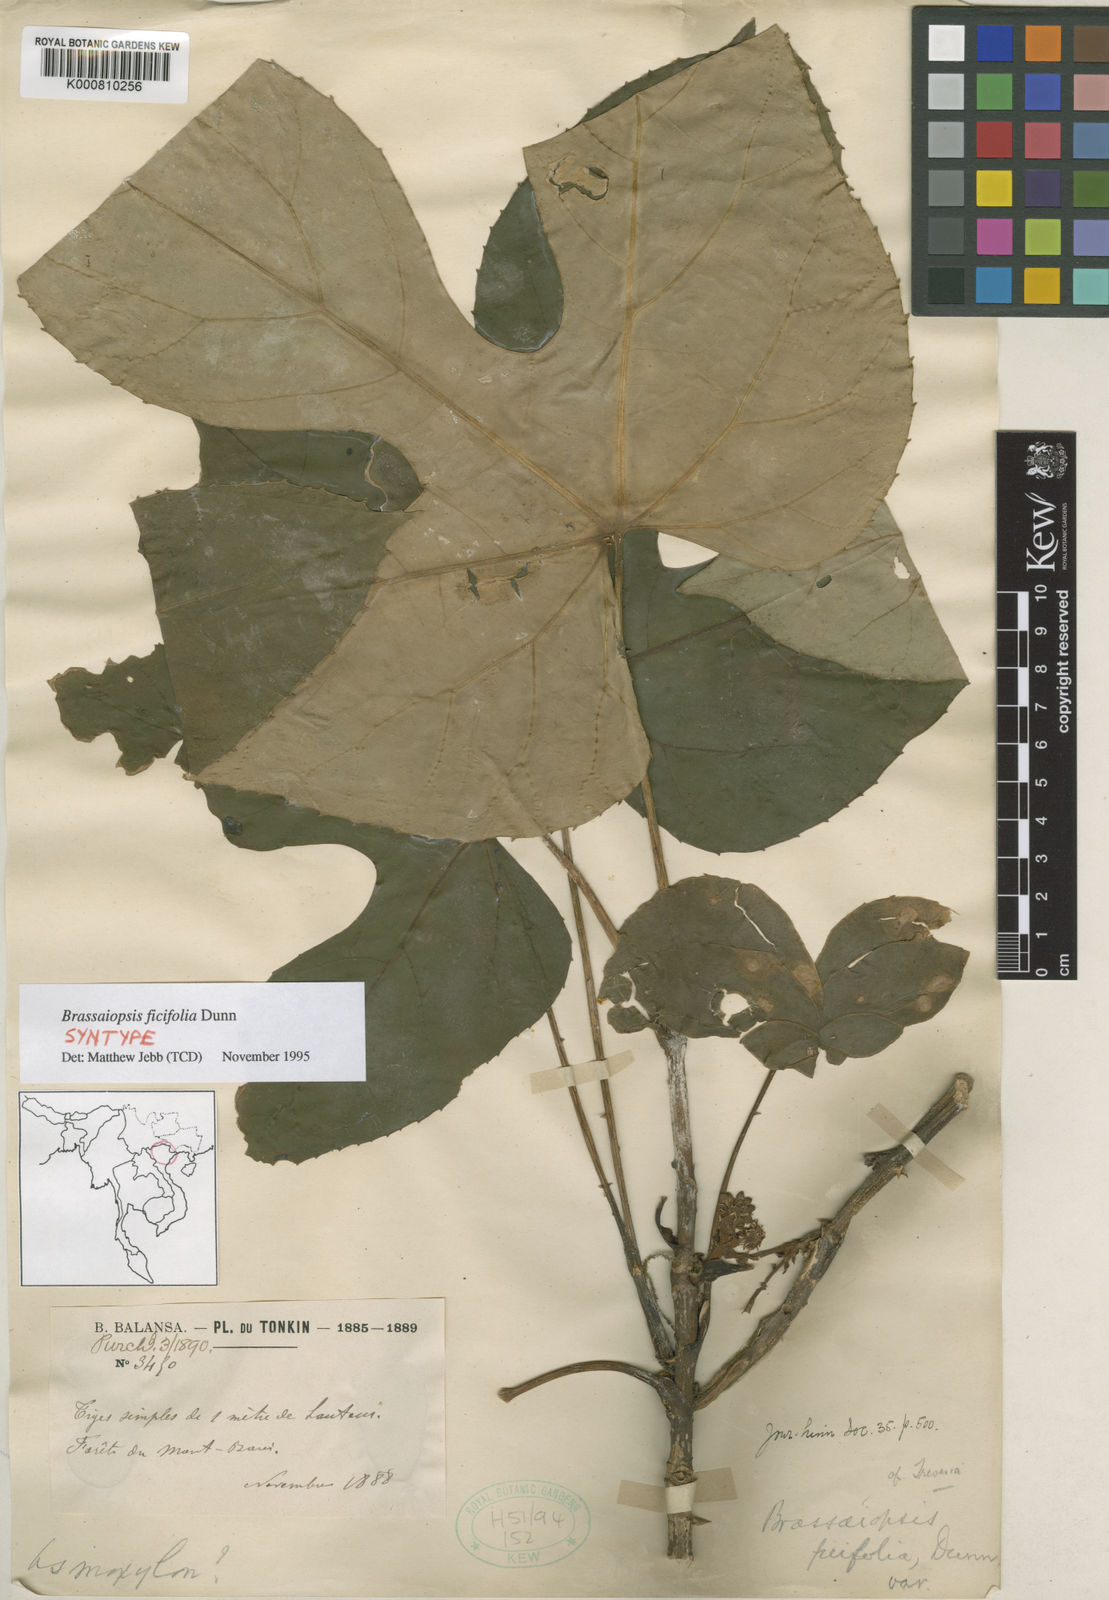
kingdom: Plantae
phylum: Tracheophyta
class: Magnoliopsida
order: Apiales
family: Araliaceae
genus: Brassaiopsis
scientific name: Brassaiopsis ficifolia
